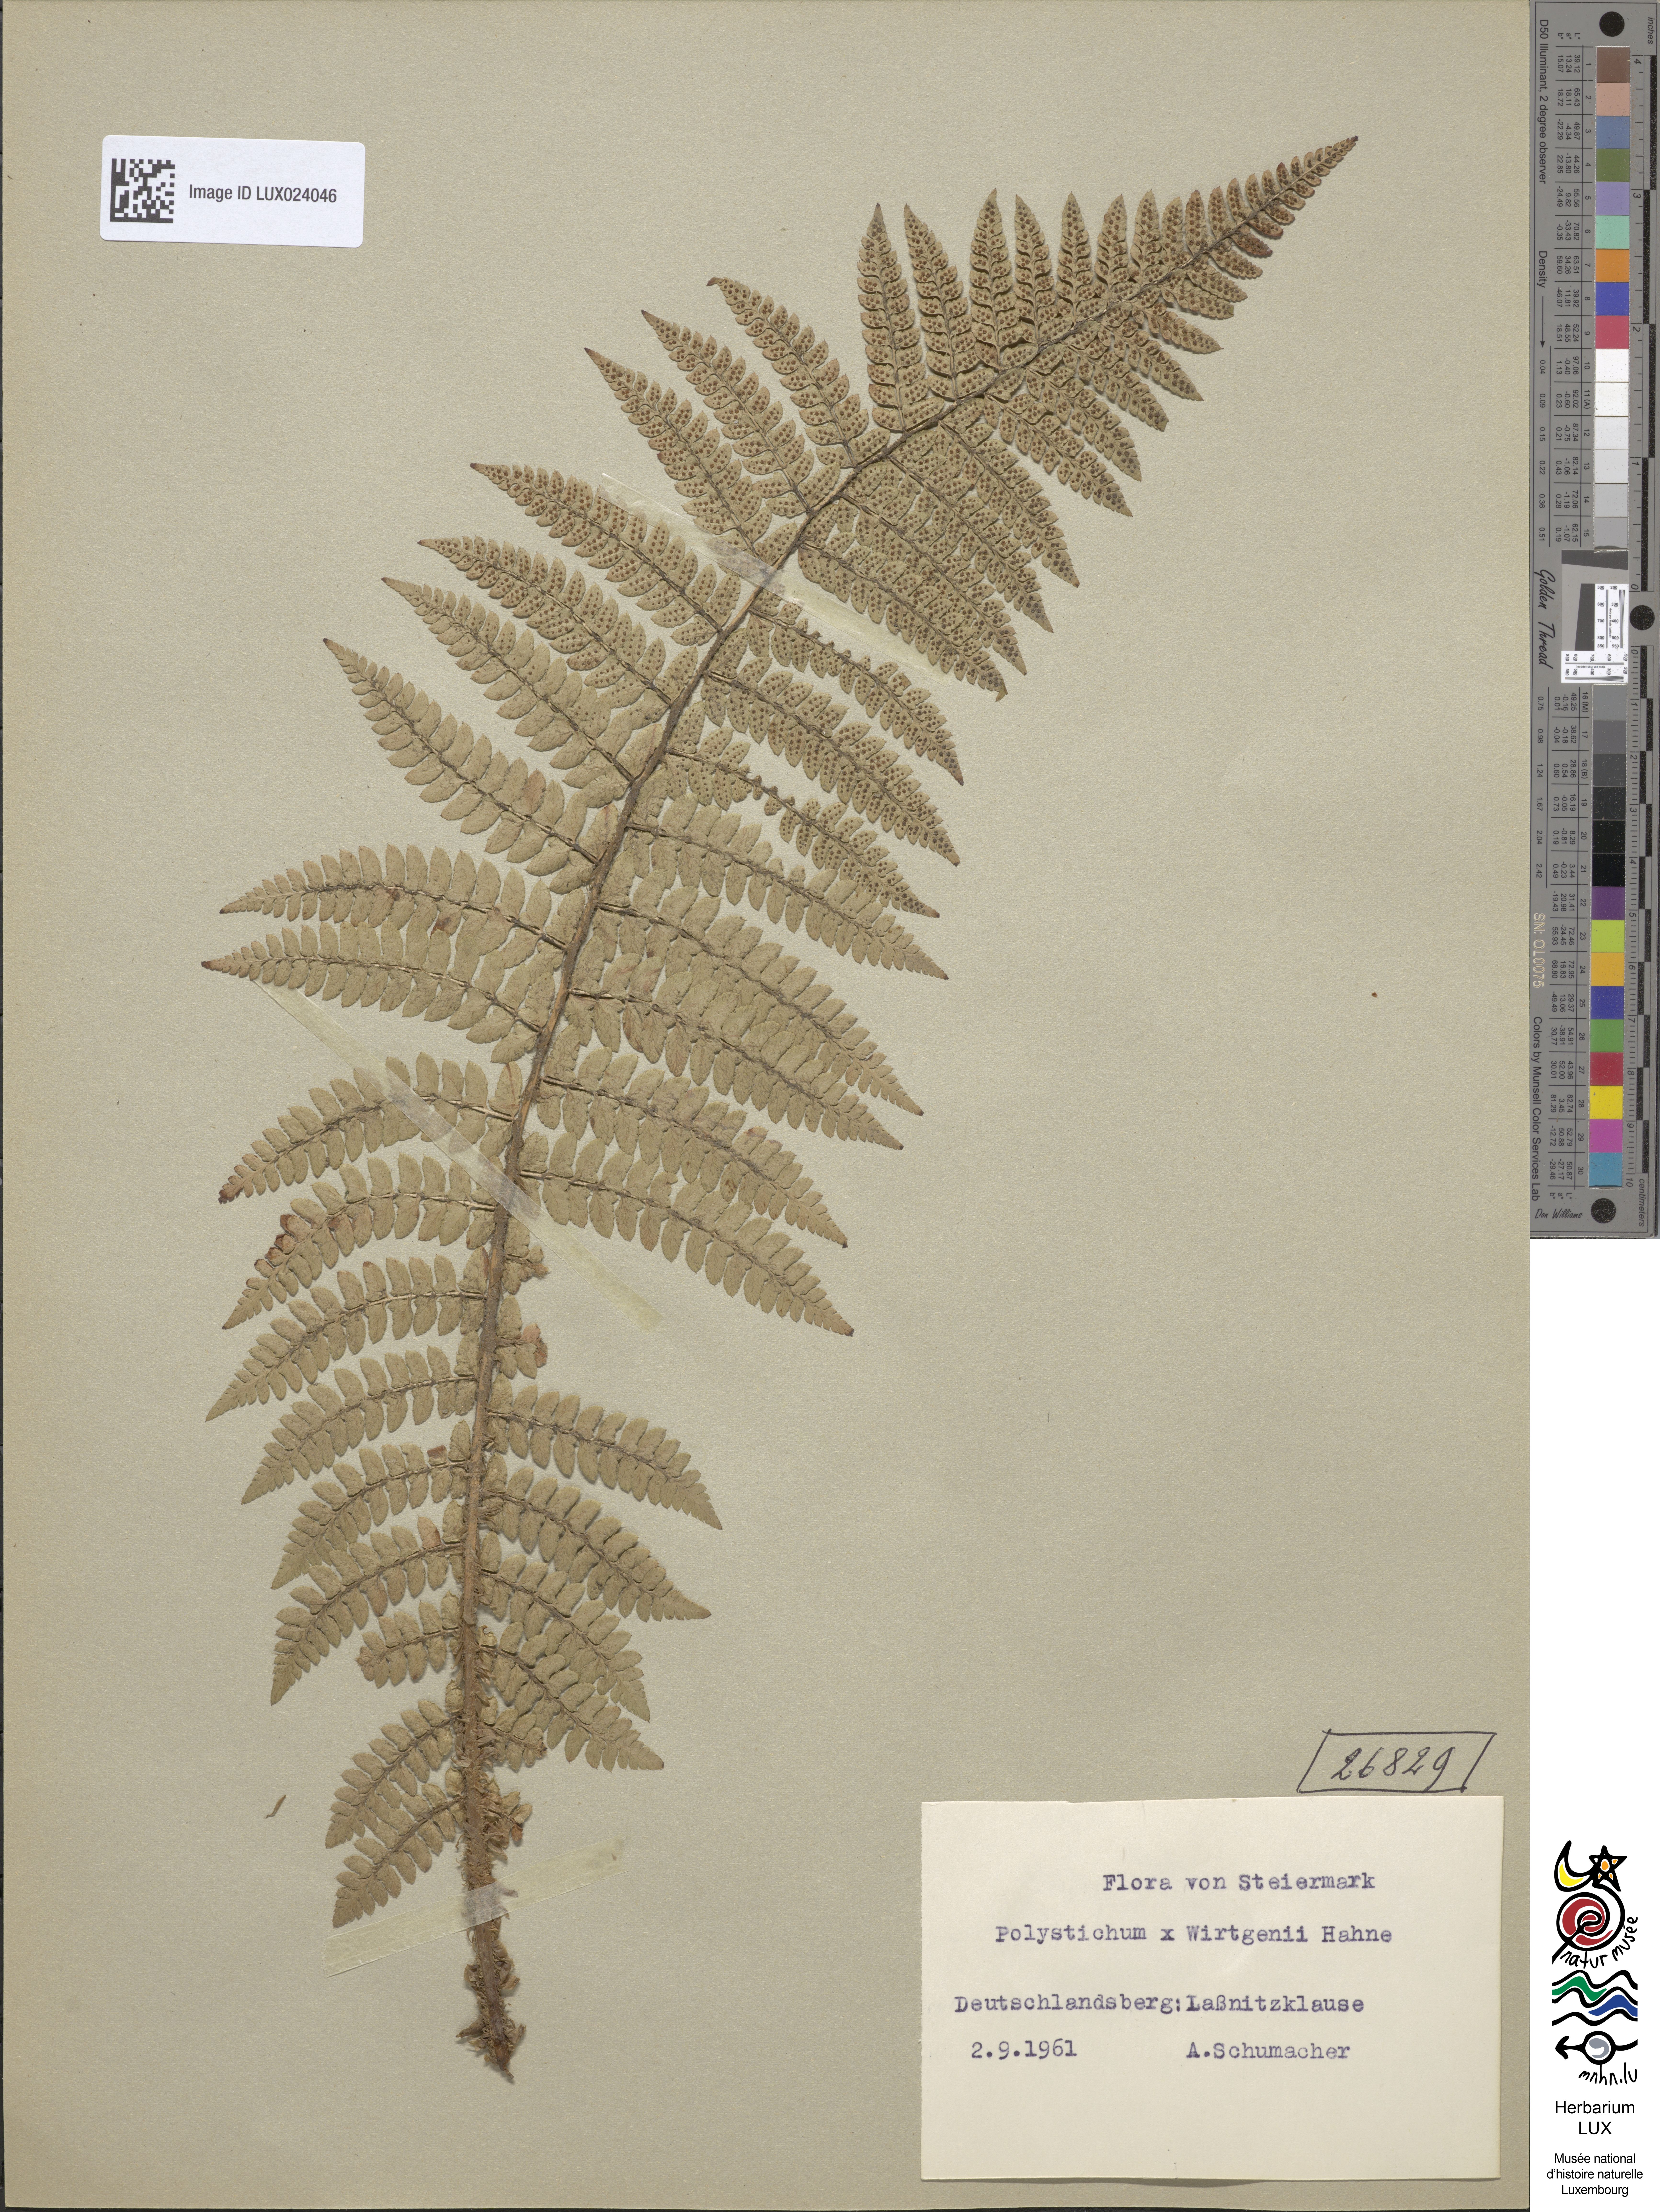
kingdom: Plantae
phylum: Tracheophyta
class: Polypodiopsida
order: Polypodiales
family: Dryopteridaceae
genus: Polystichum
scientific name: Polystichum wirtgenii
